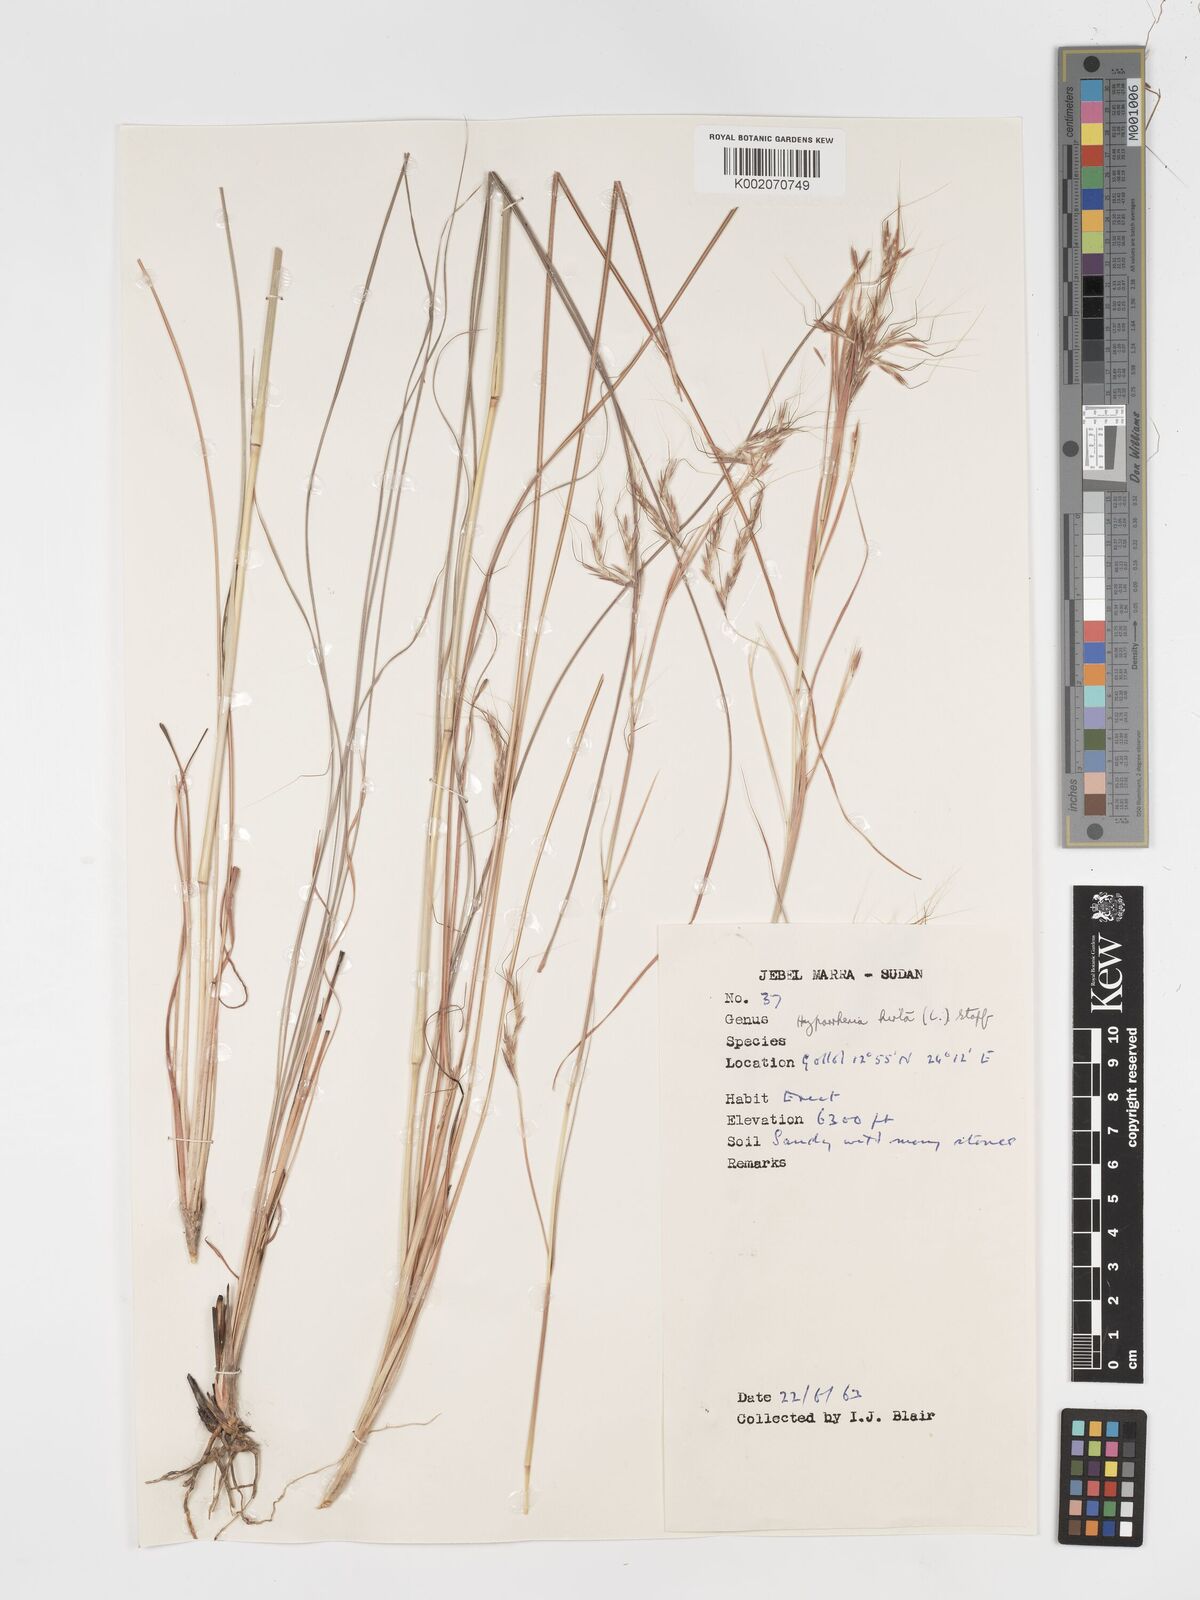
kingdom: Plantae
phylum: Tracheophyta
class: Liliopsida
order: Poales
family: Poaceae
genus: Hyparrhenia
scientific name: Hyparrhenia hirta
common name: Thatching grass
